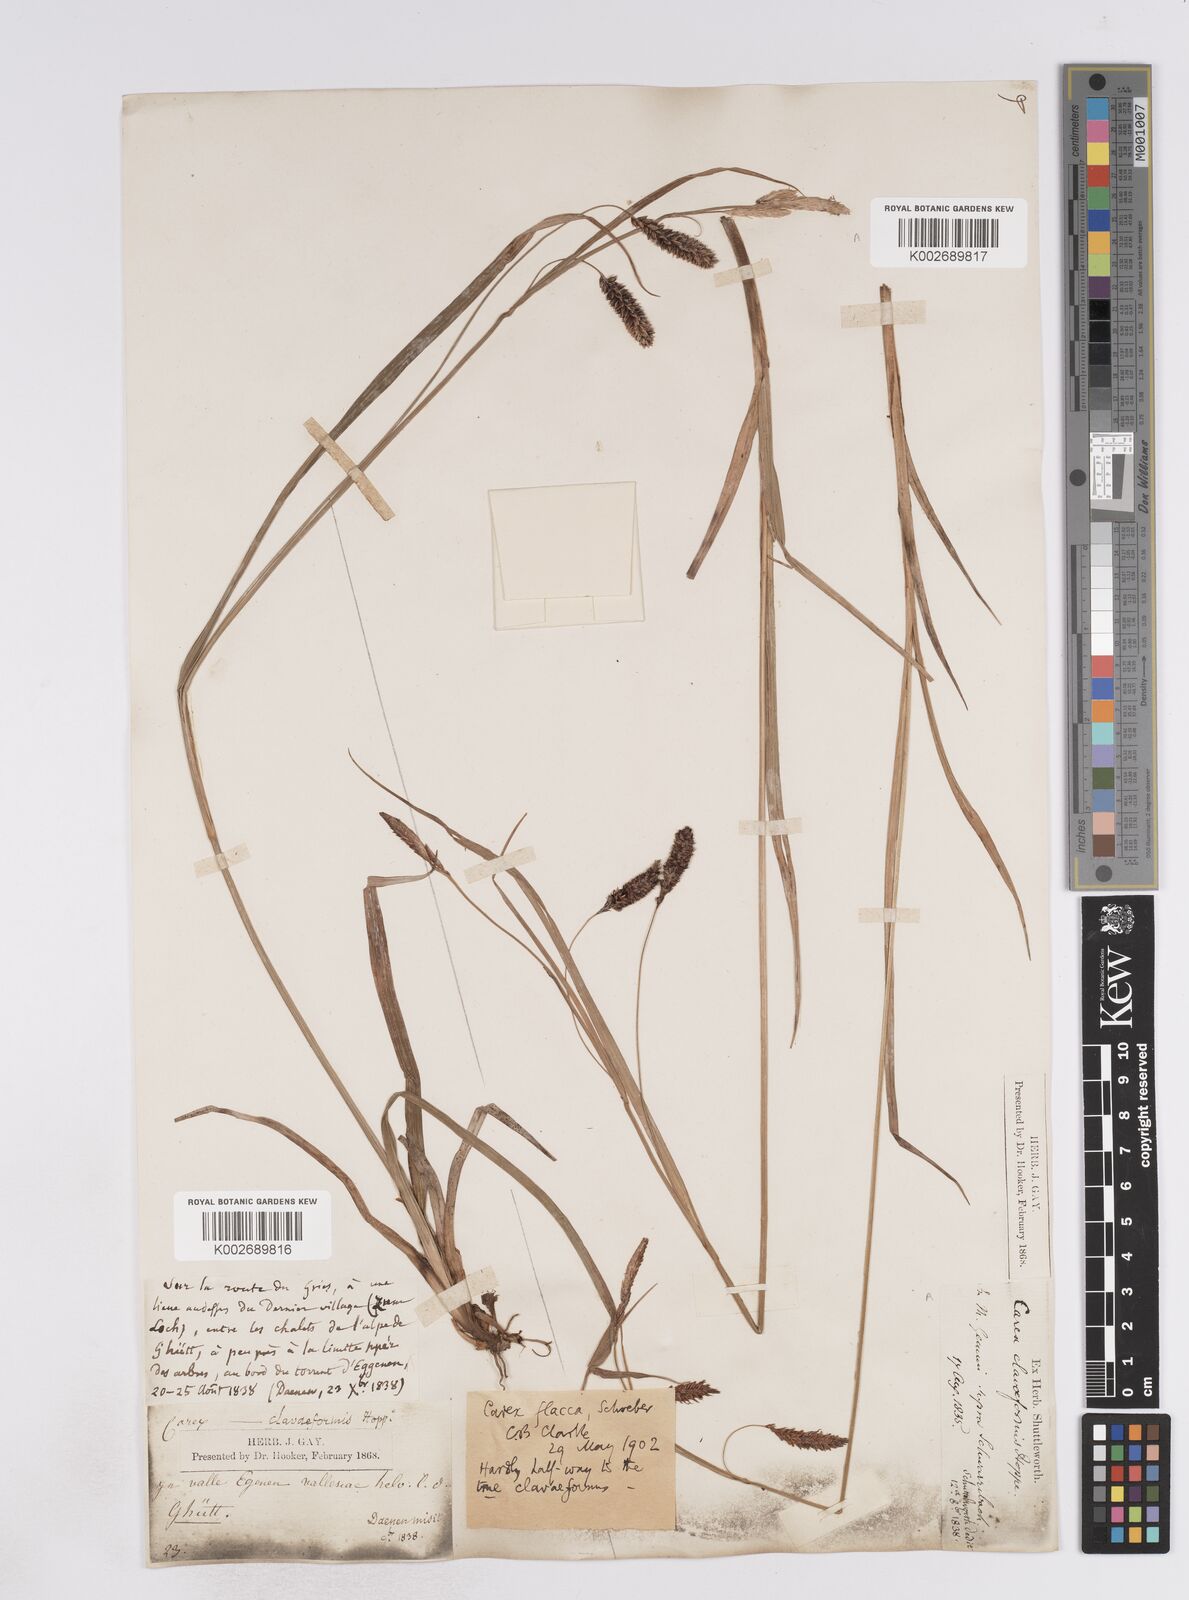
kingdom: Plantae
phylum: Tracheophyta
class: Liliopsida
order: Poales
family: Cyperaceae
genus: Carex
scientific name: Carex flacca
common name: Glaucous sedge
